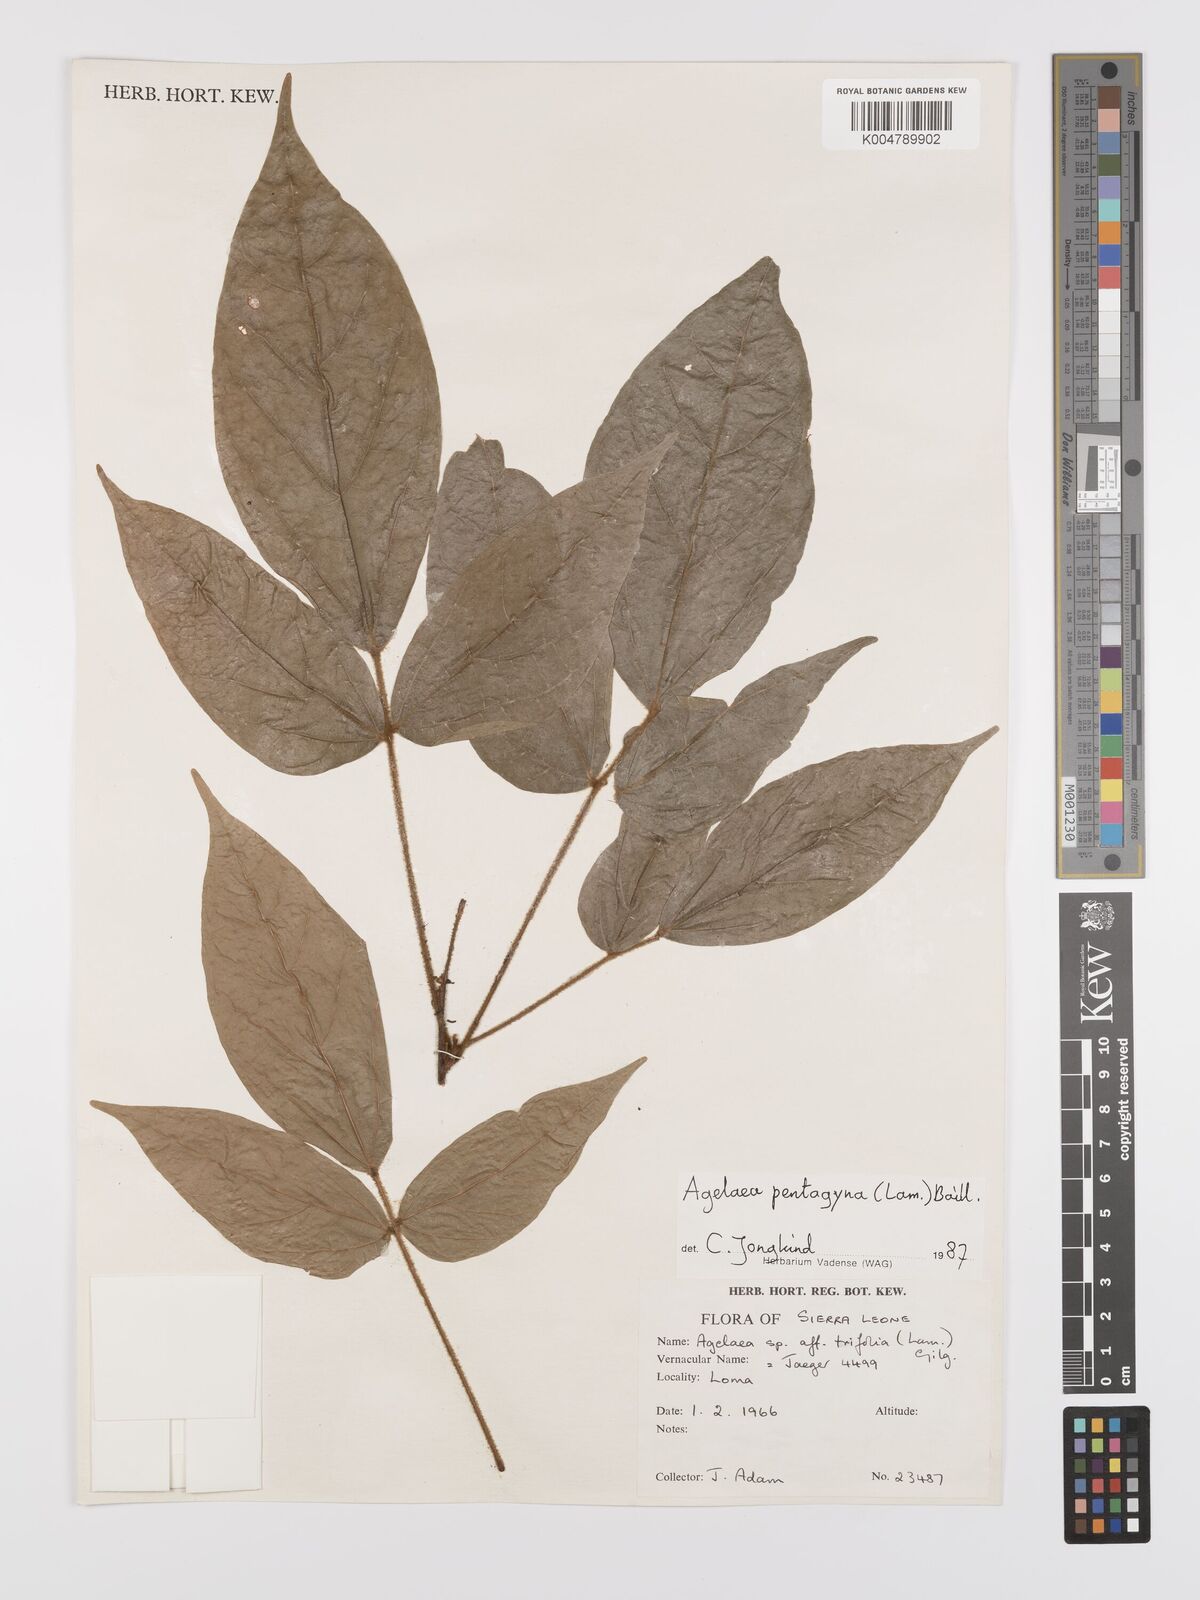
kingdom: Plantae
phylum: Tracheophyta
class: Magnoliopsida
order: Oxalidales
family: Connaraceae
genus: Agelaea
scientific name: Agelaea pentagyna
